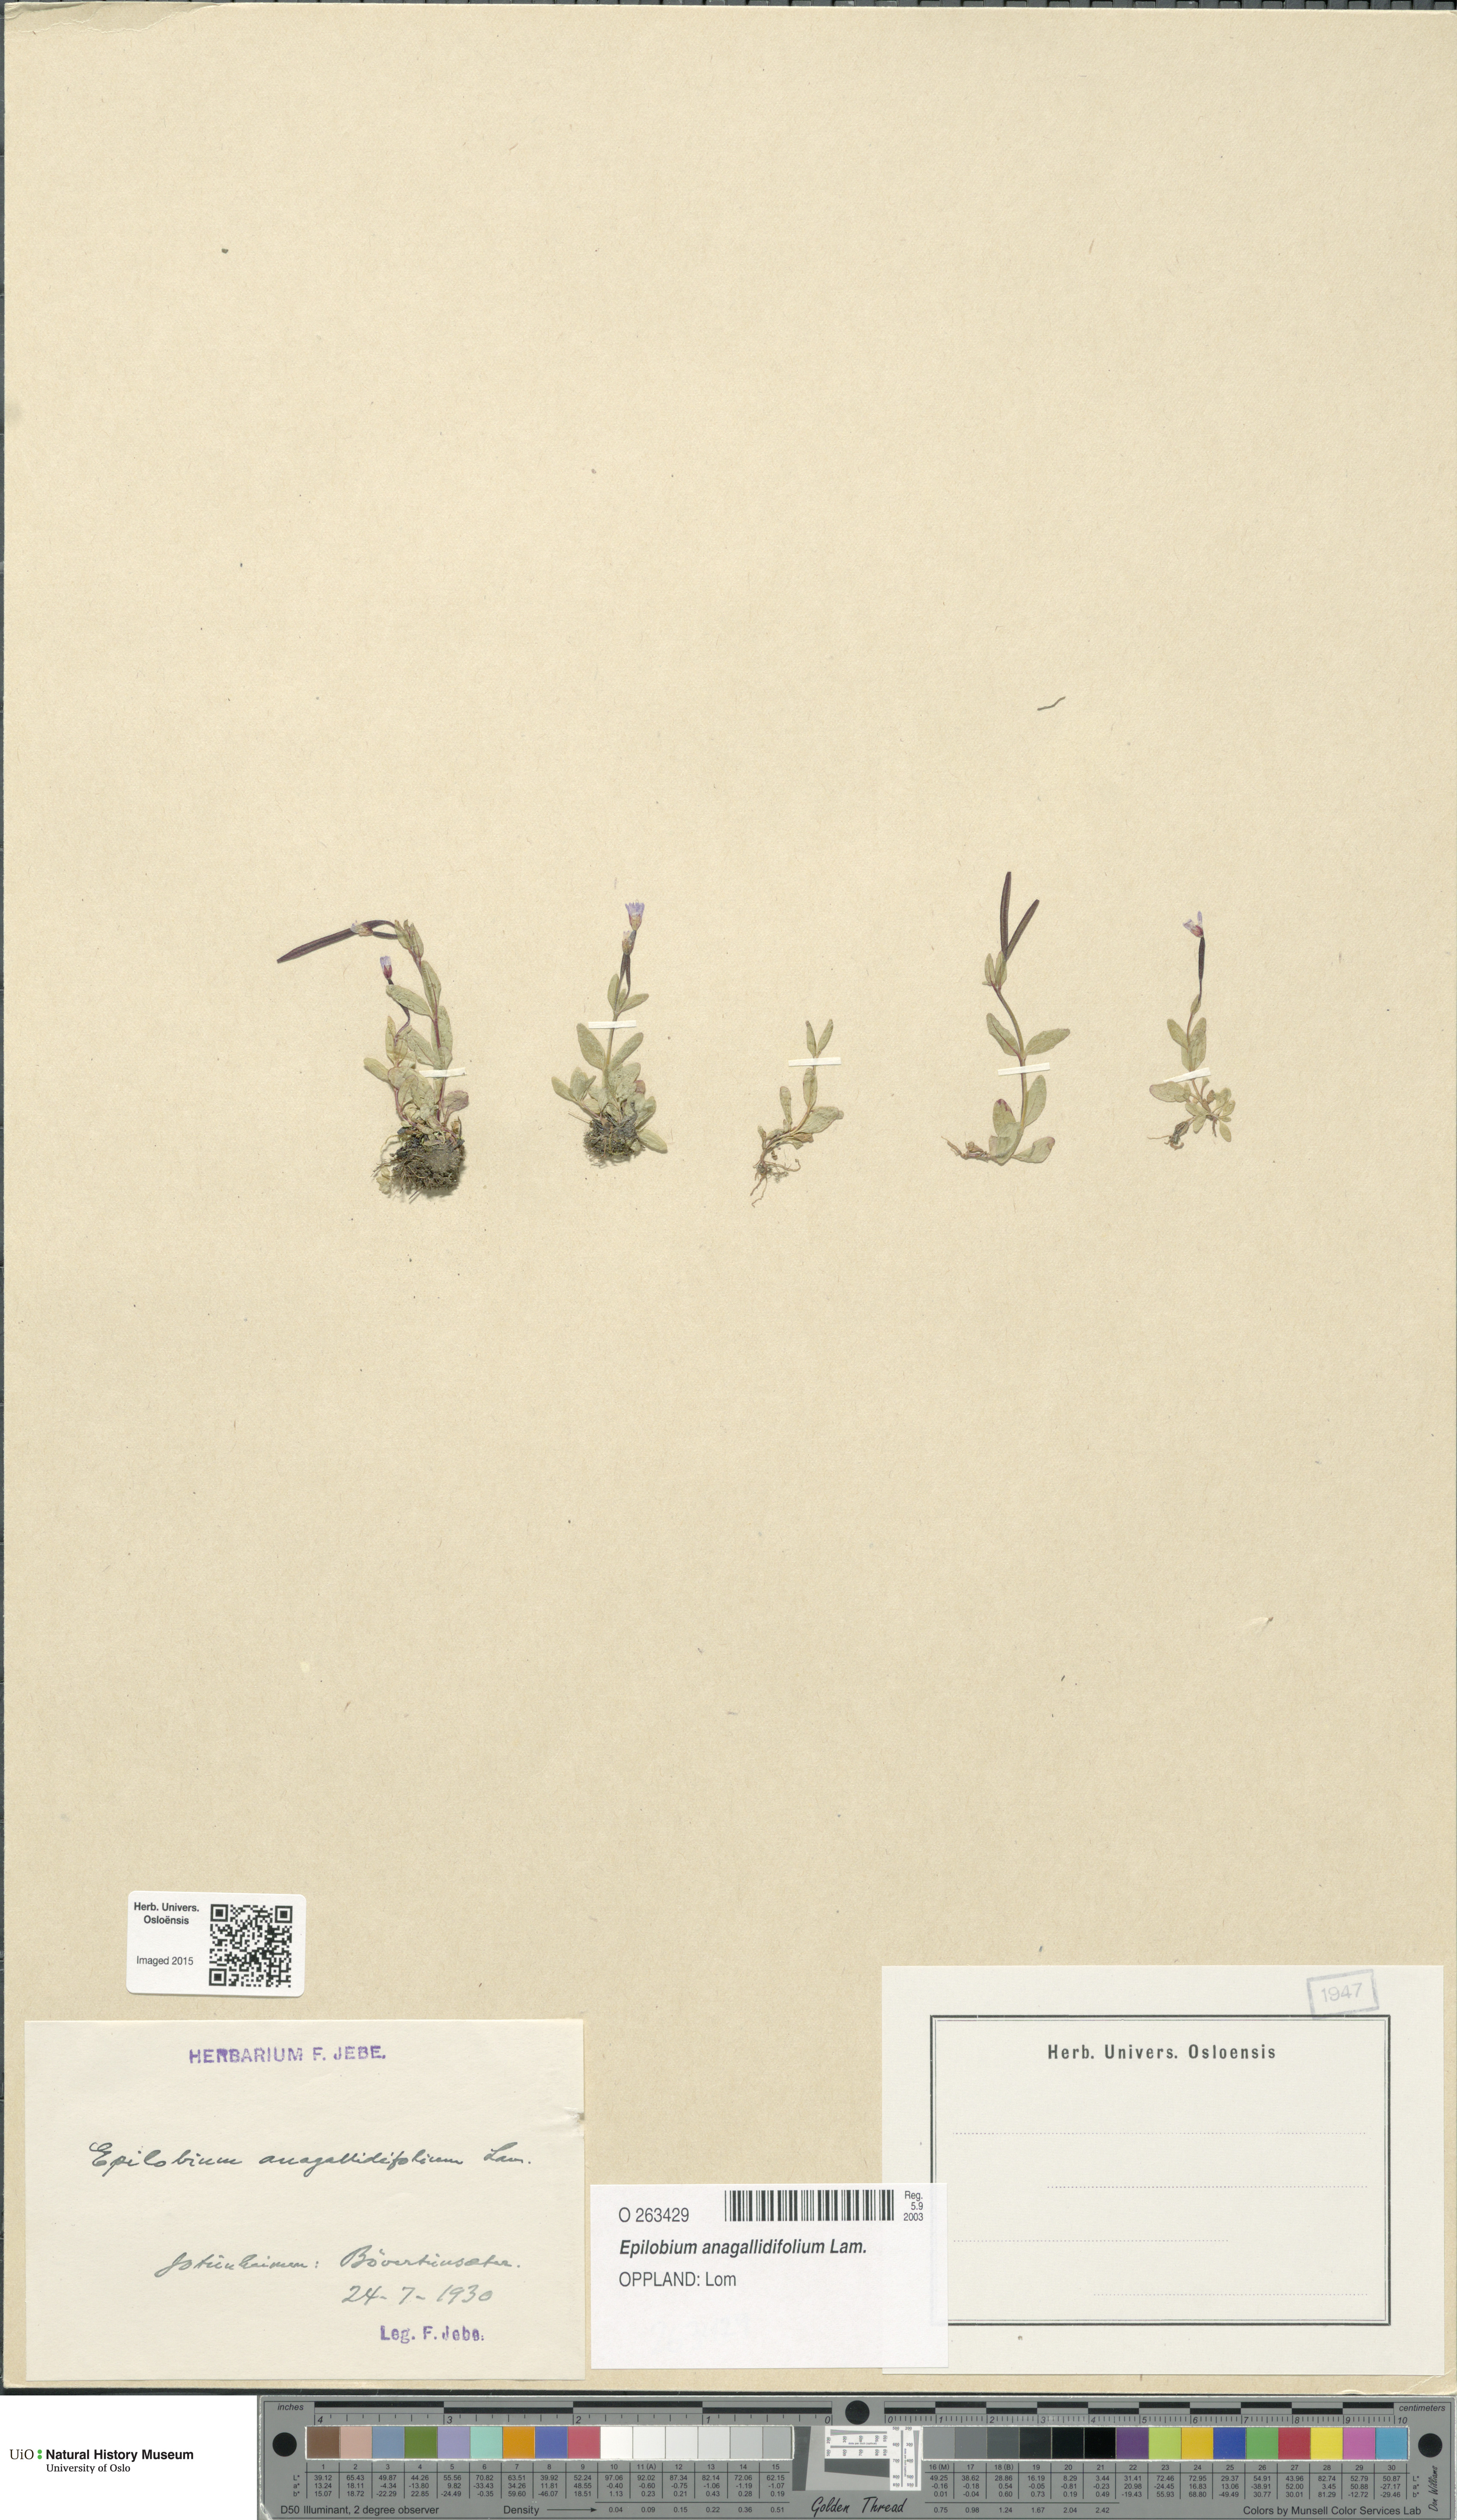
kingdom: Plantae
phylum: Tracheophyta
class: Magnoliopsida
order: Myrtales
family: Onagraceae
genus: Epilobium
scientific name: Epilobium anagallidifolium
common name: Alpine willowherb
